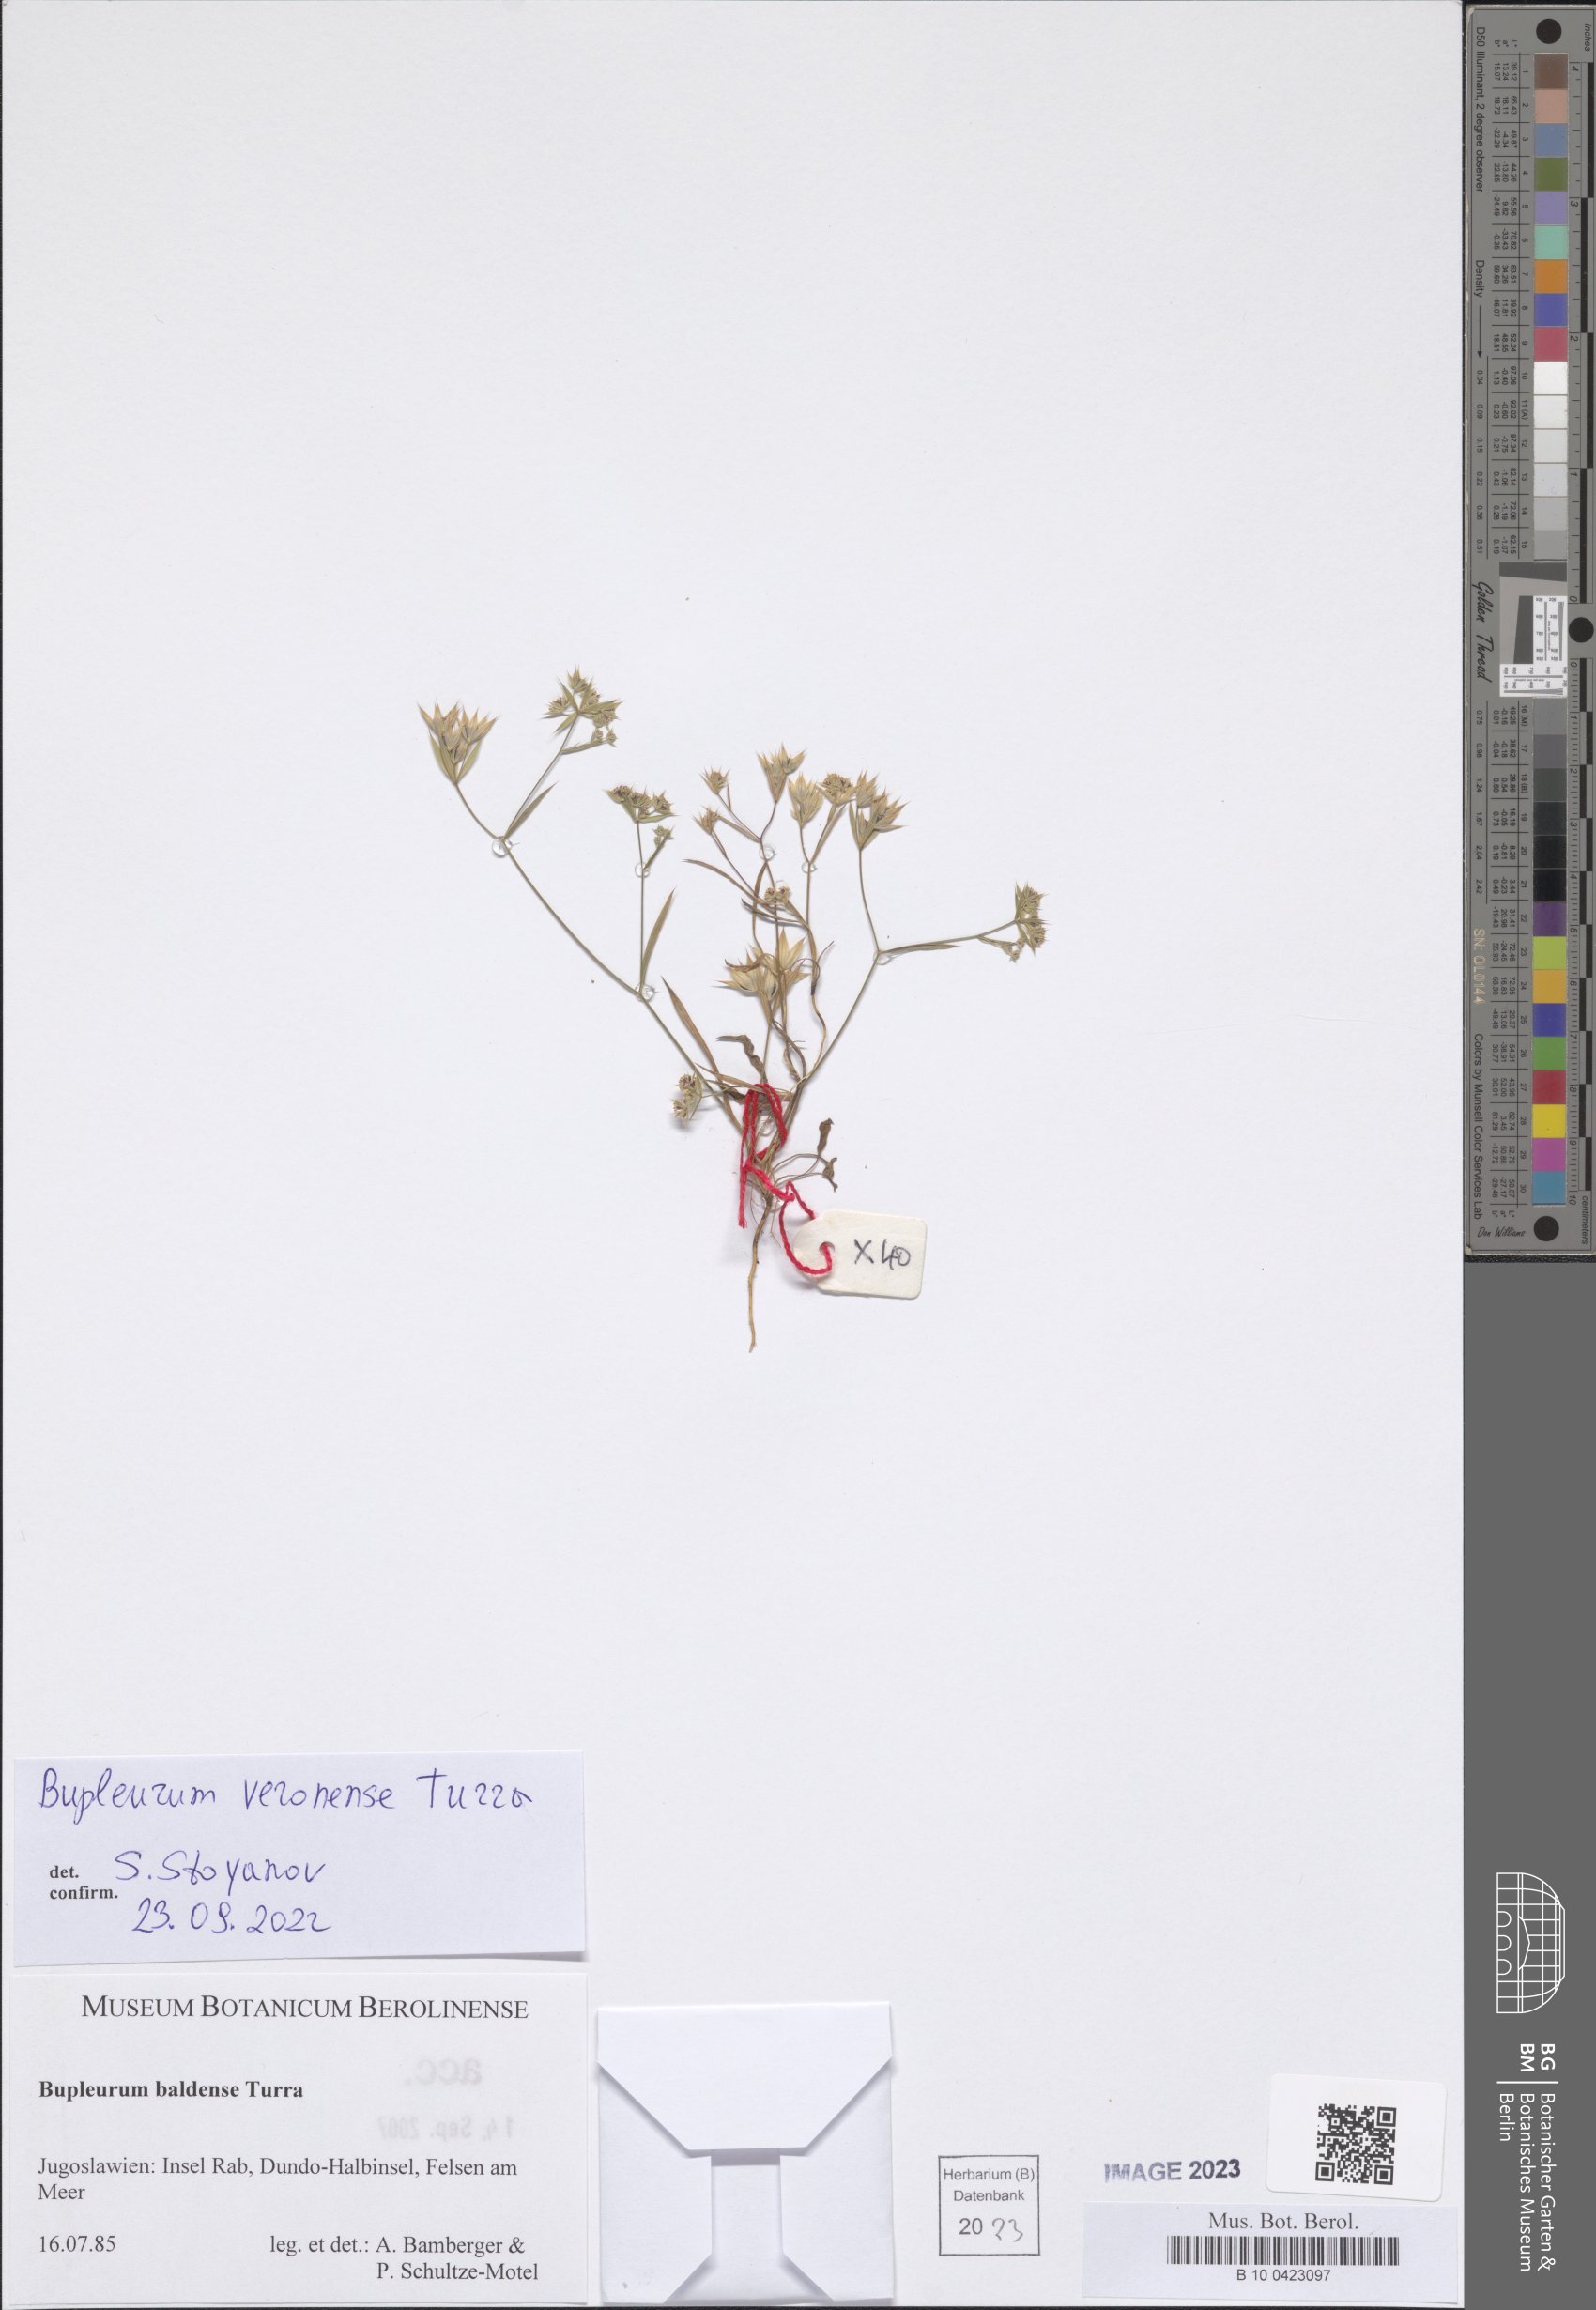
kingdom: Plantae
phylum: Tracheophyta
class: Magnoliopsida
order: Apiales
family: Apiaceae
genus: Bupleurum
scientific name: Bupleurum veronense
